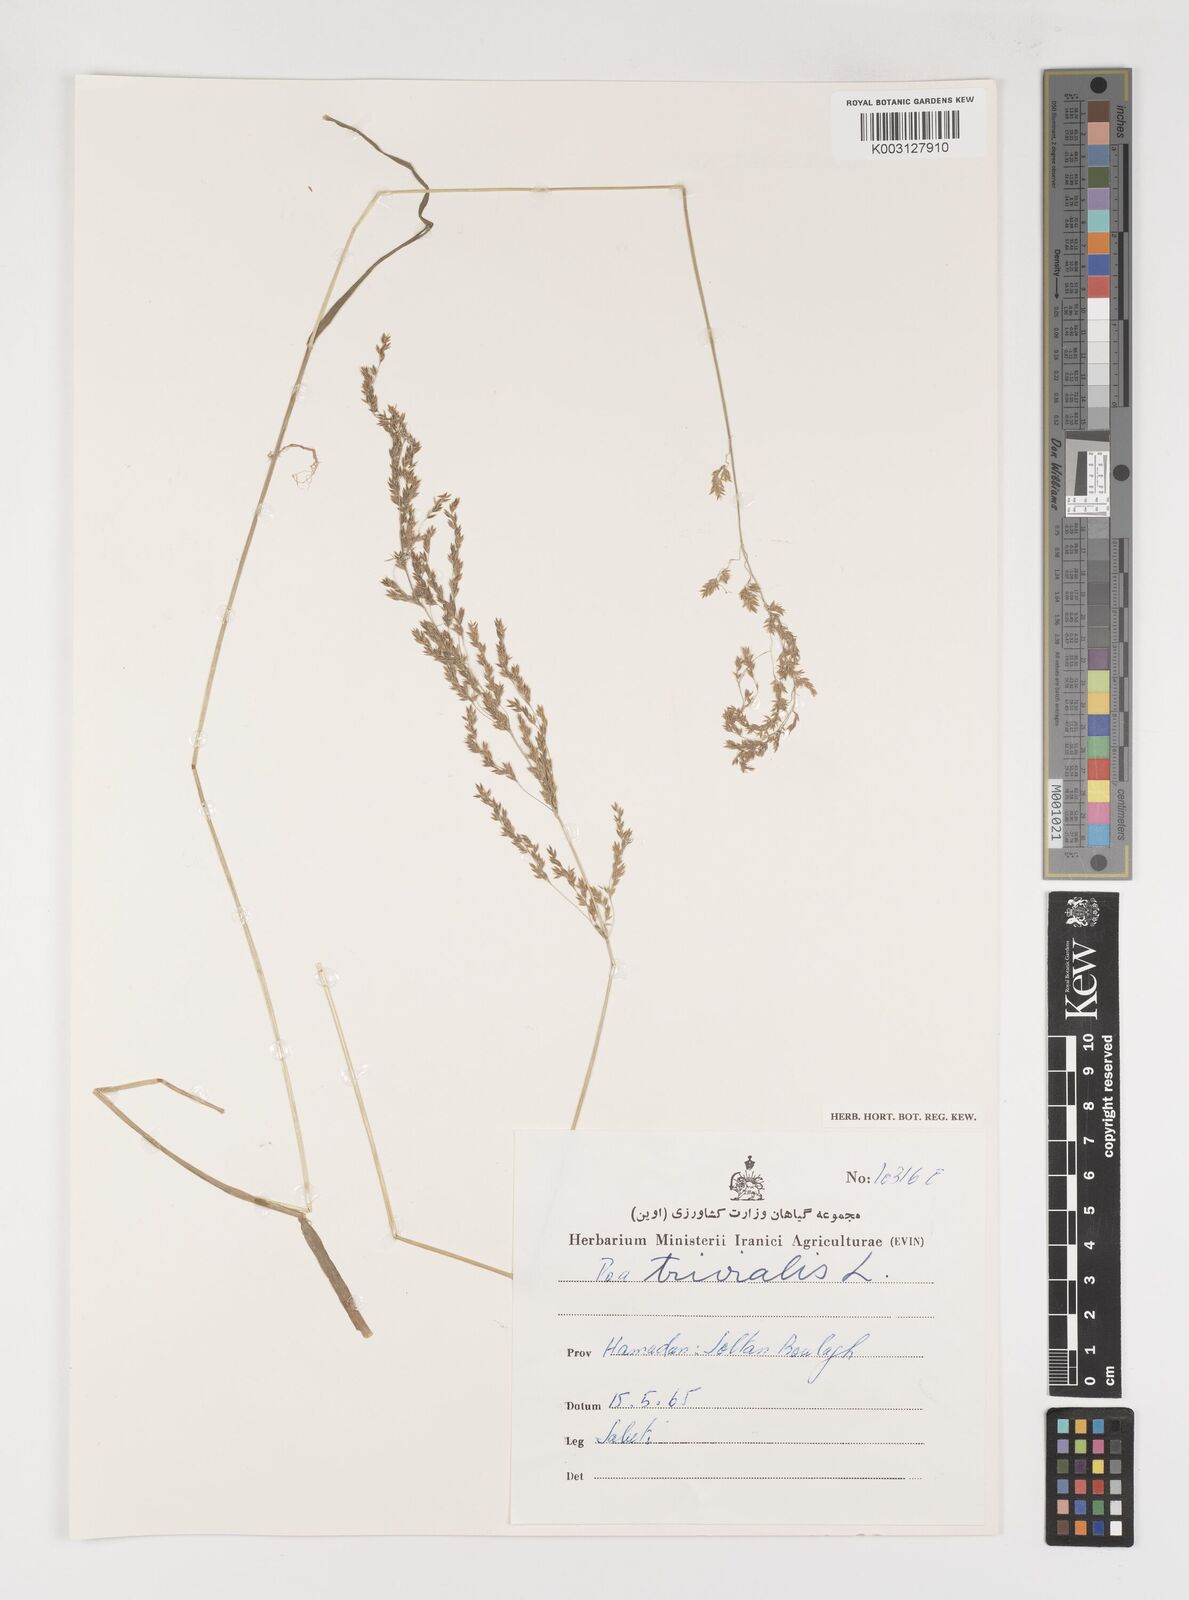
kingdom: Plantae
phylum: Tracheophyta
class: Liliopsida
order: Poales
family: Poaceae
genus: Poa
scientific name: Poa trivialis
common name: Rough bluegrass
